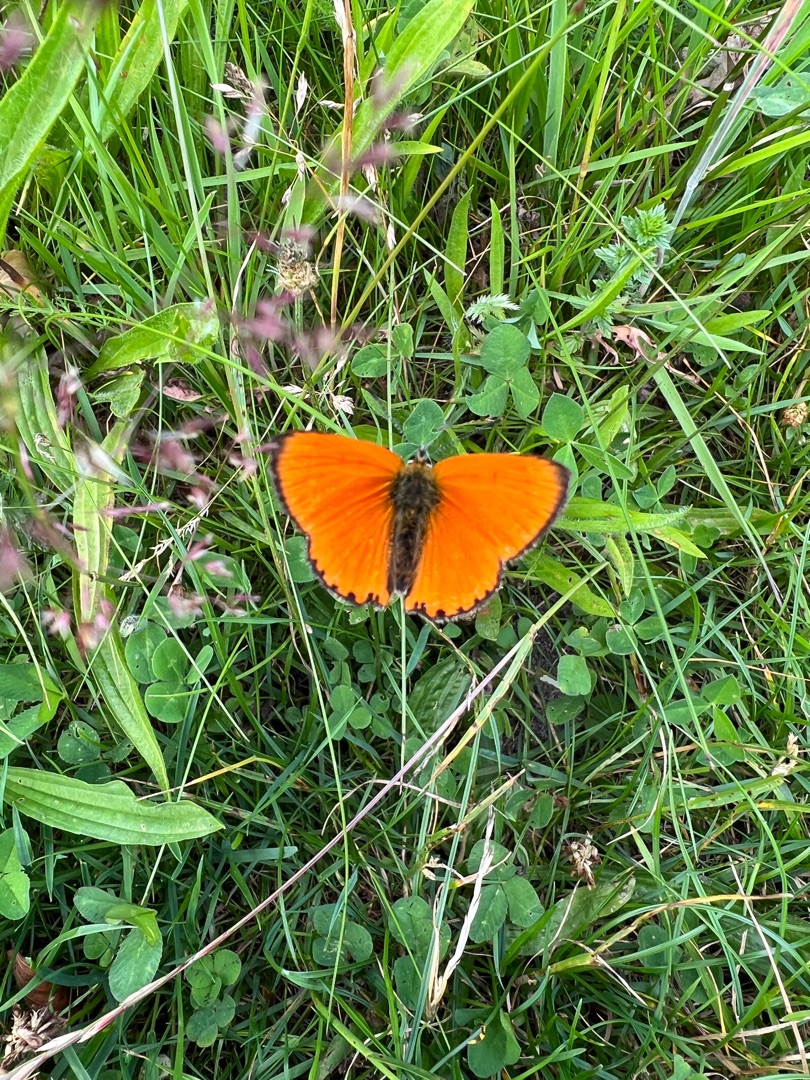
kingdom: Animalia
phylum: Arthropoda
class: Insecta
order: Lepidoptera
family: Lycaenidae
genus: Lycaena
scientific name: Lycaena virgaureae
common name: Dukatsommerfugl
